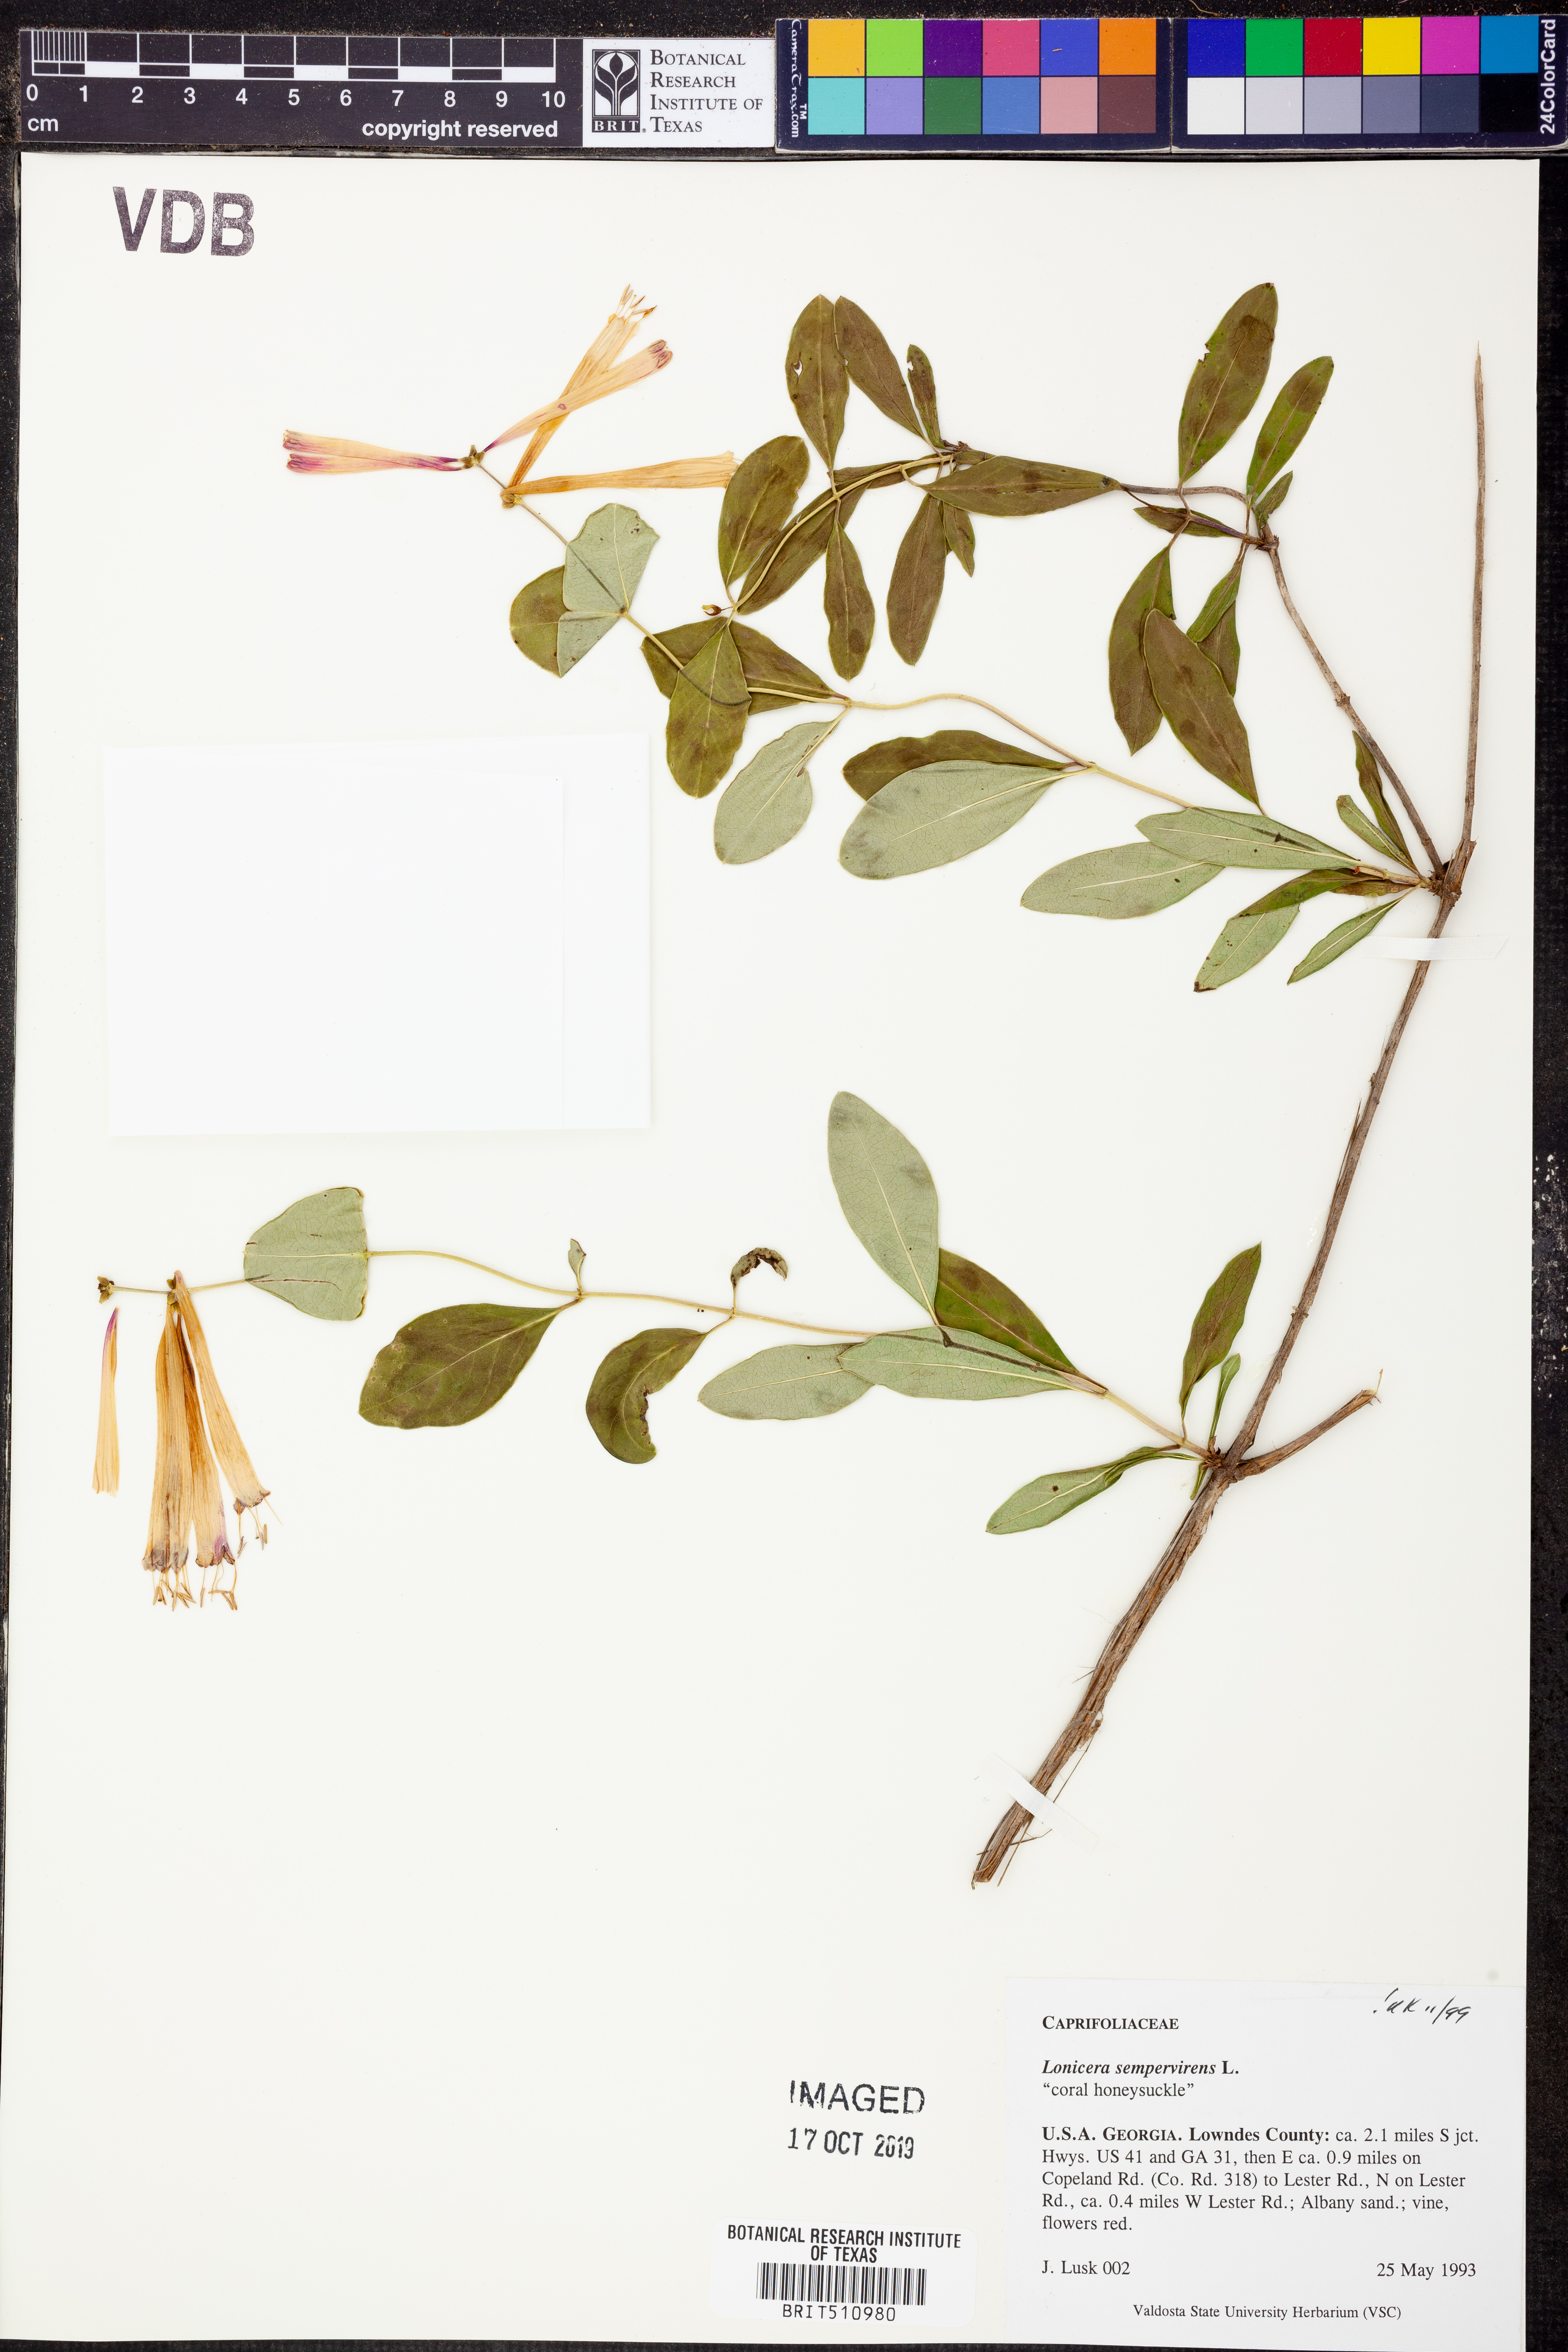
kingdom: Plantae
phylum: Tracheophyta
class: Magnoliopsida
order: Dipsacales
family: Caprifoliaceae
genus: Lonicera
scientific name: Lonicera sempervirens
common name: Coral honeysuckle
